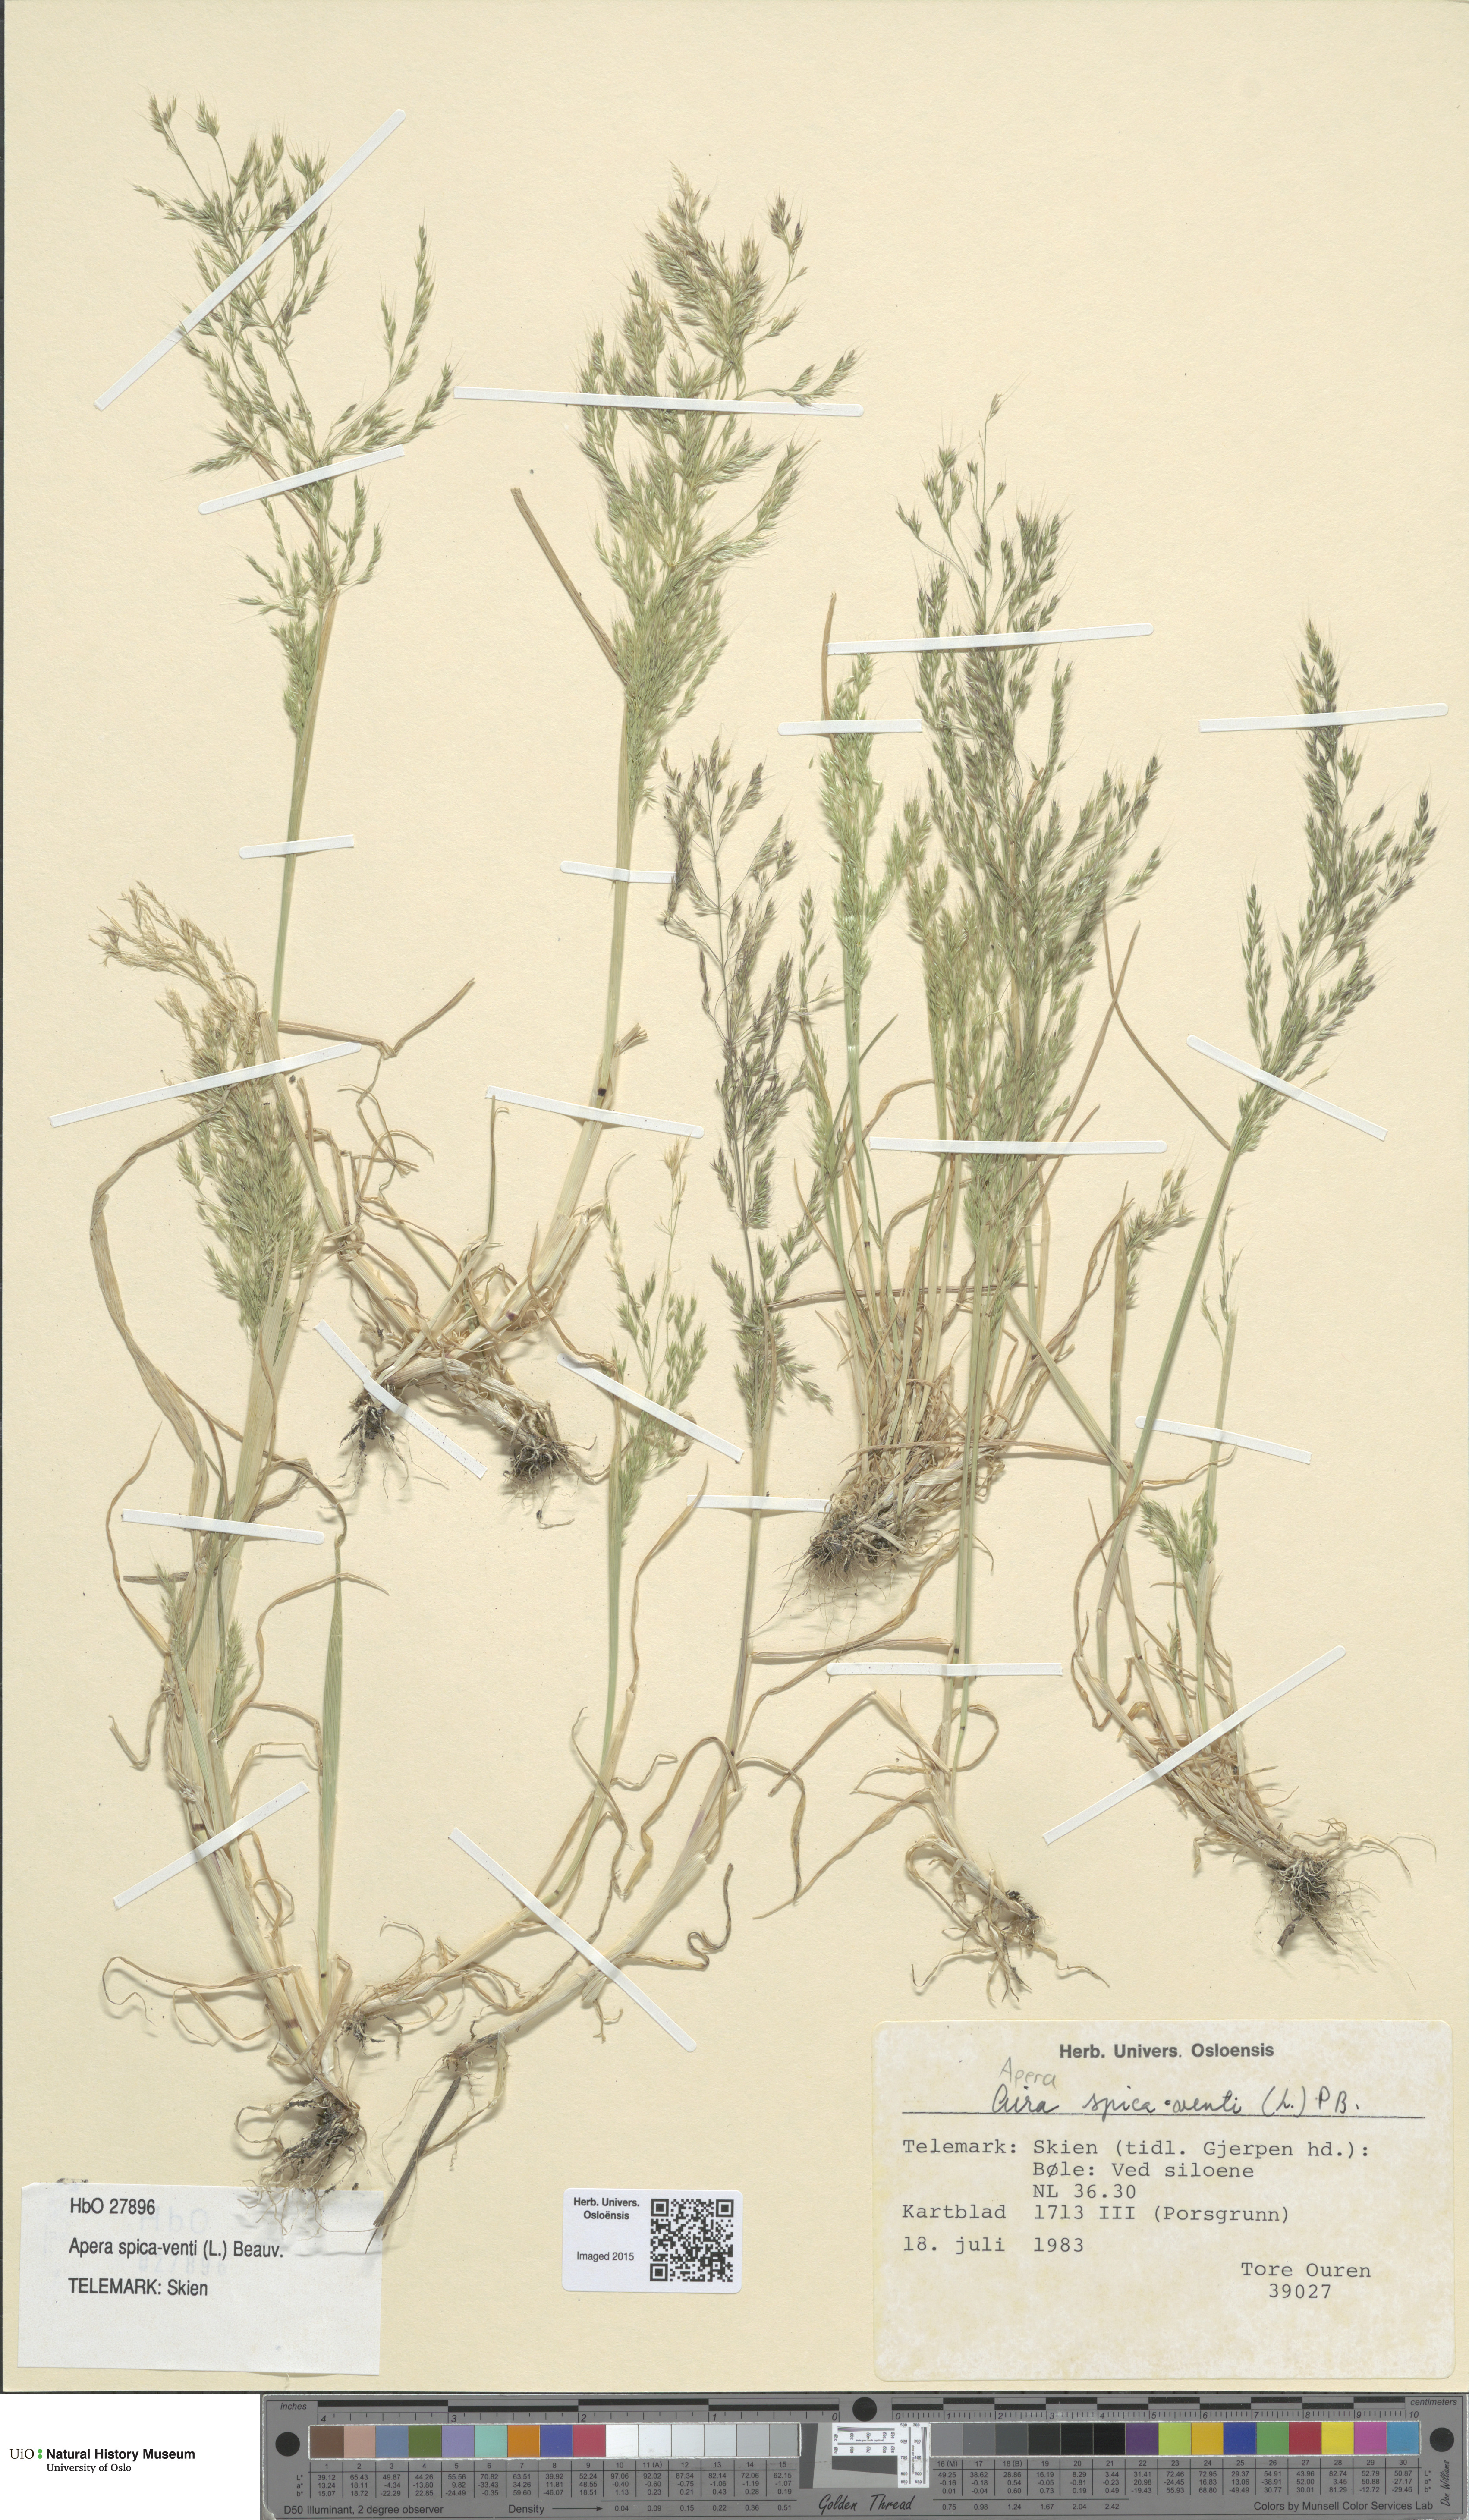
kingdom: Plantae
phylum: Tracheophyta
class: Liliopsida
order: Poales
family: Poaceae
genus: Apera
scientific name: Apera spica-venti
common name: Loose silky-bent
